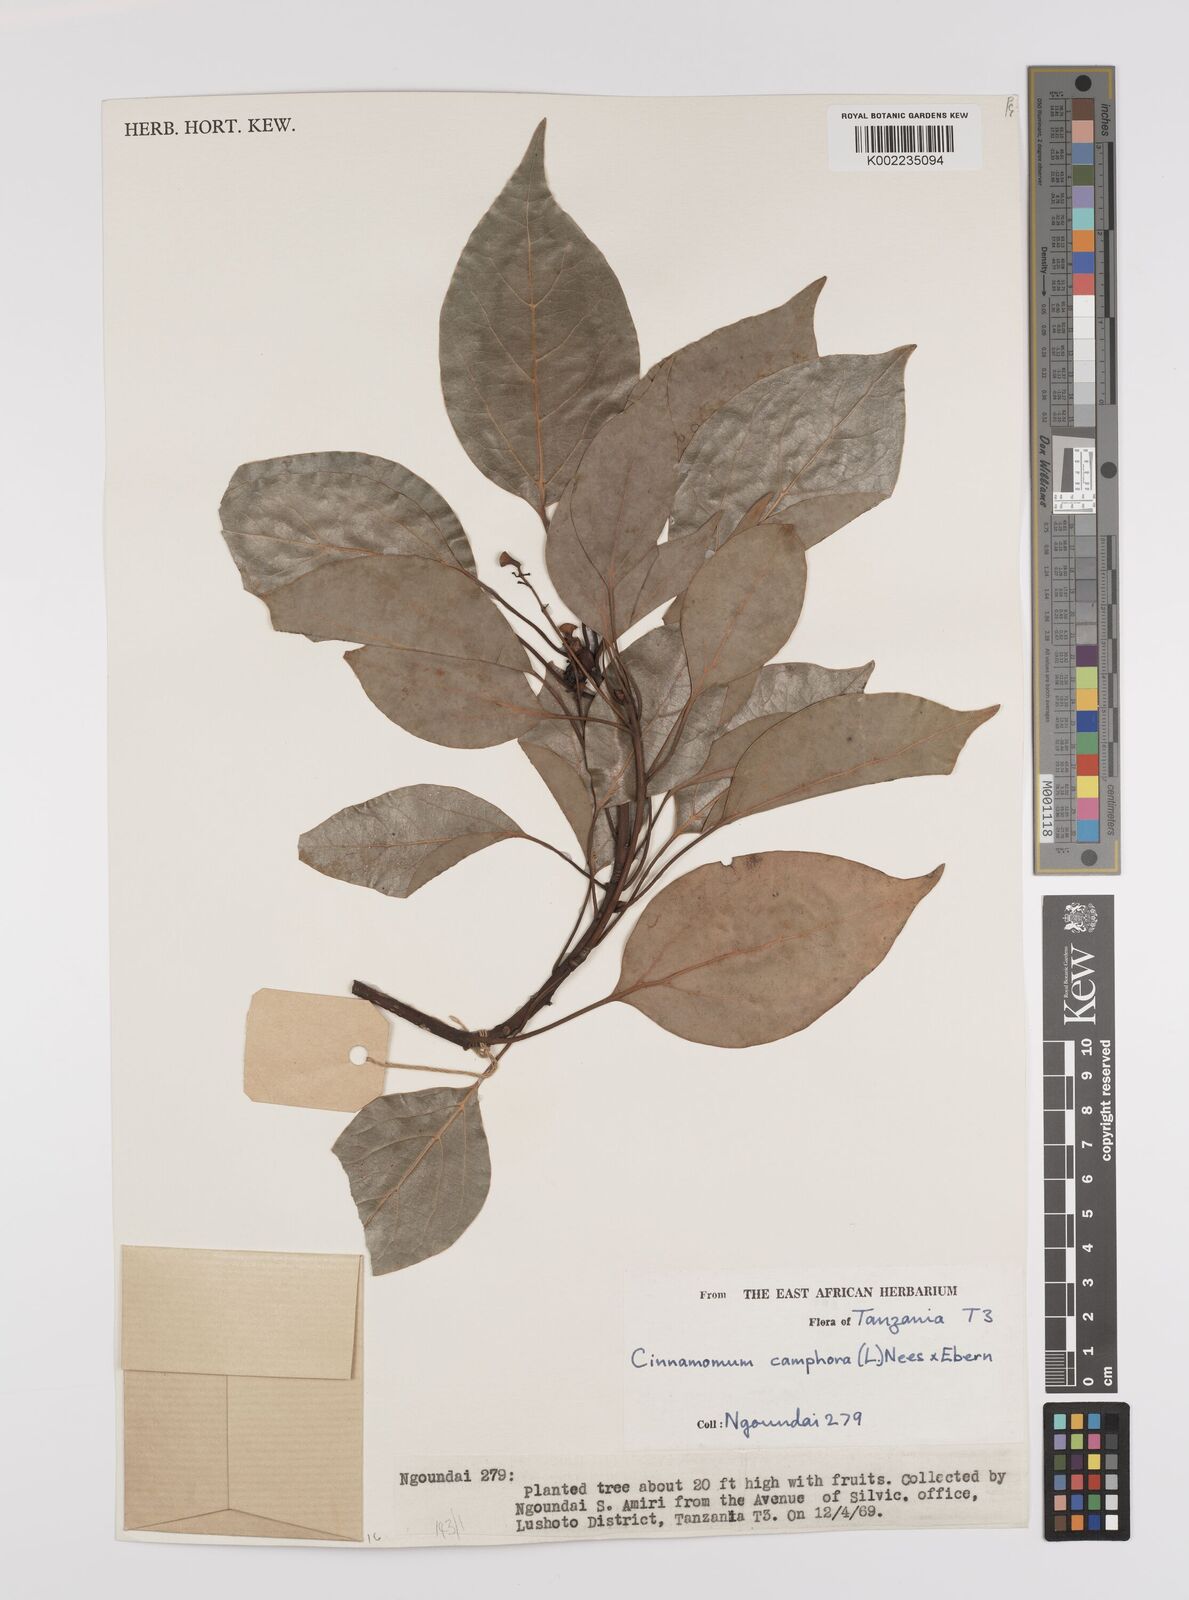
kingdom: Plantae
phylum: Tracheophyta
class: Magnoliopsida
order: Laurales
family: Lauraceae
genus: Cinnamomum
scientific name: Cinnamomum camphora
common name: Camphortree
